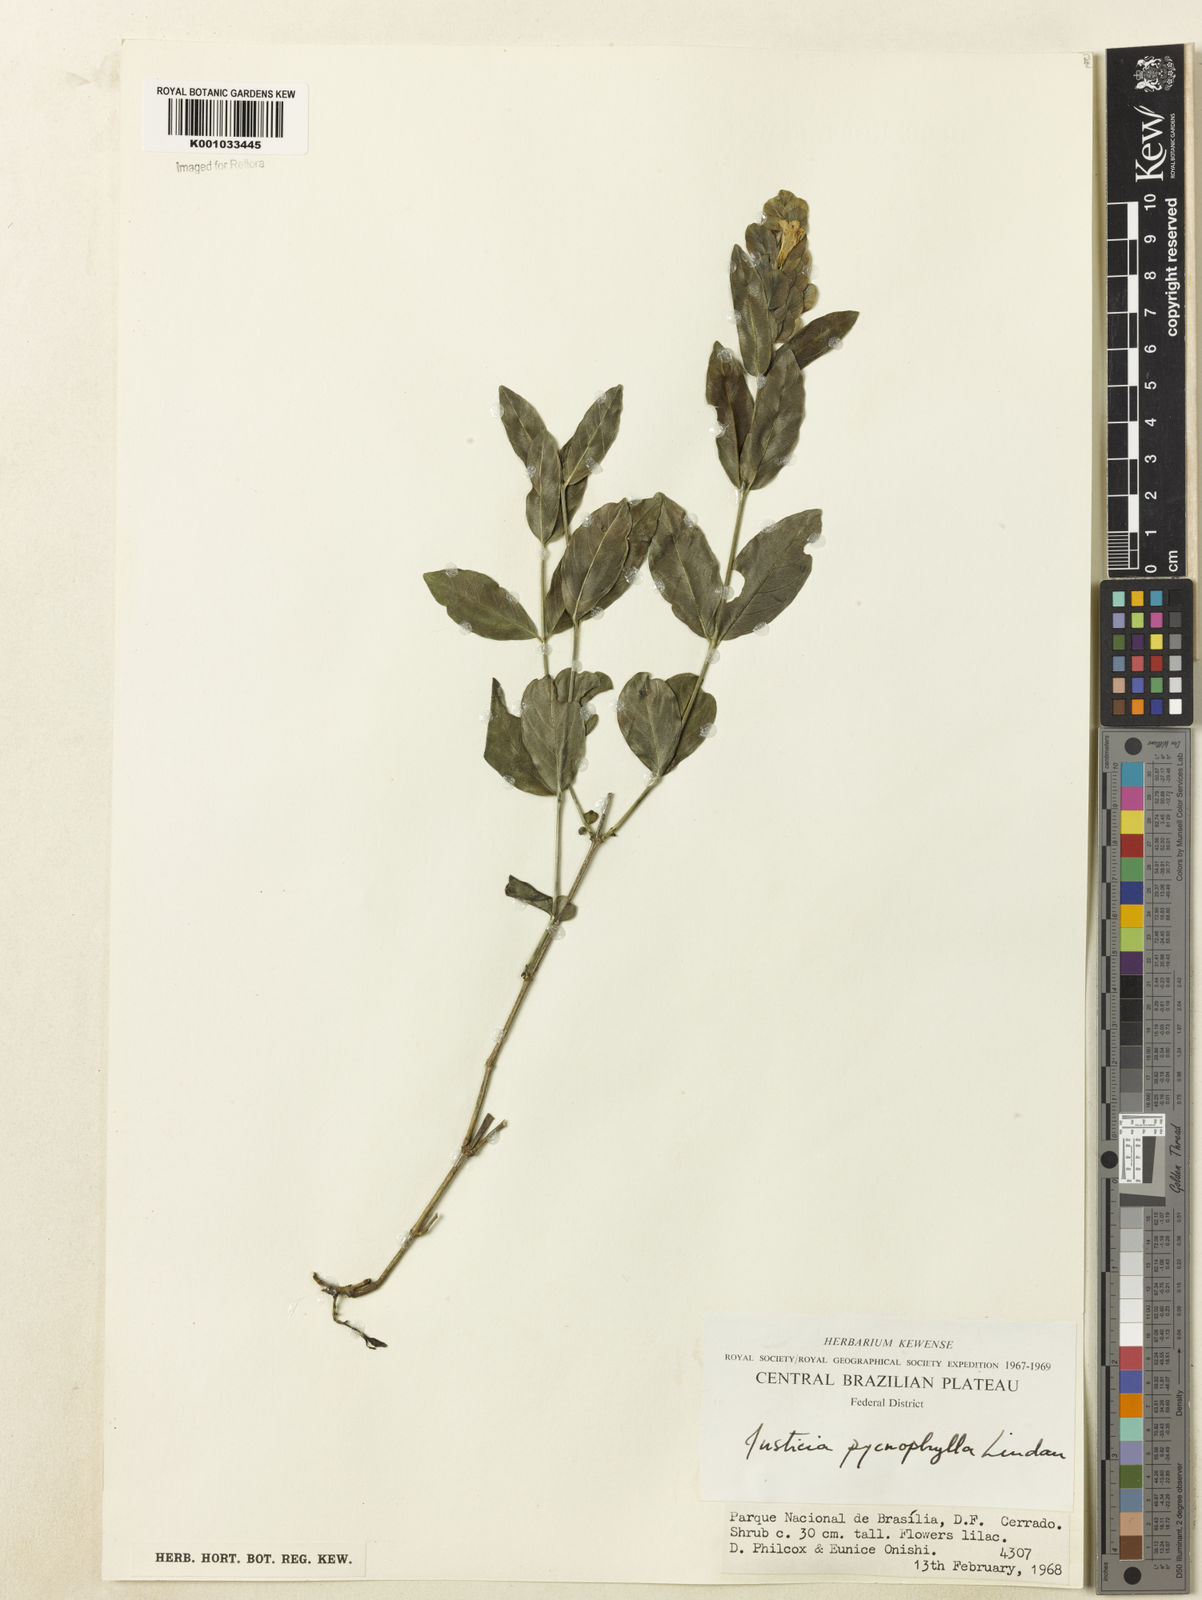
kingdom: Plantae
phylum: Tracheophyta
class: Magnoliopsida
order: Lamiales
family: Acanthaceae
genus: Justicia
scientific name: Justicia pycnophylla
